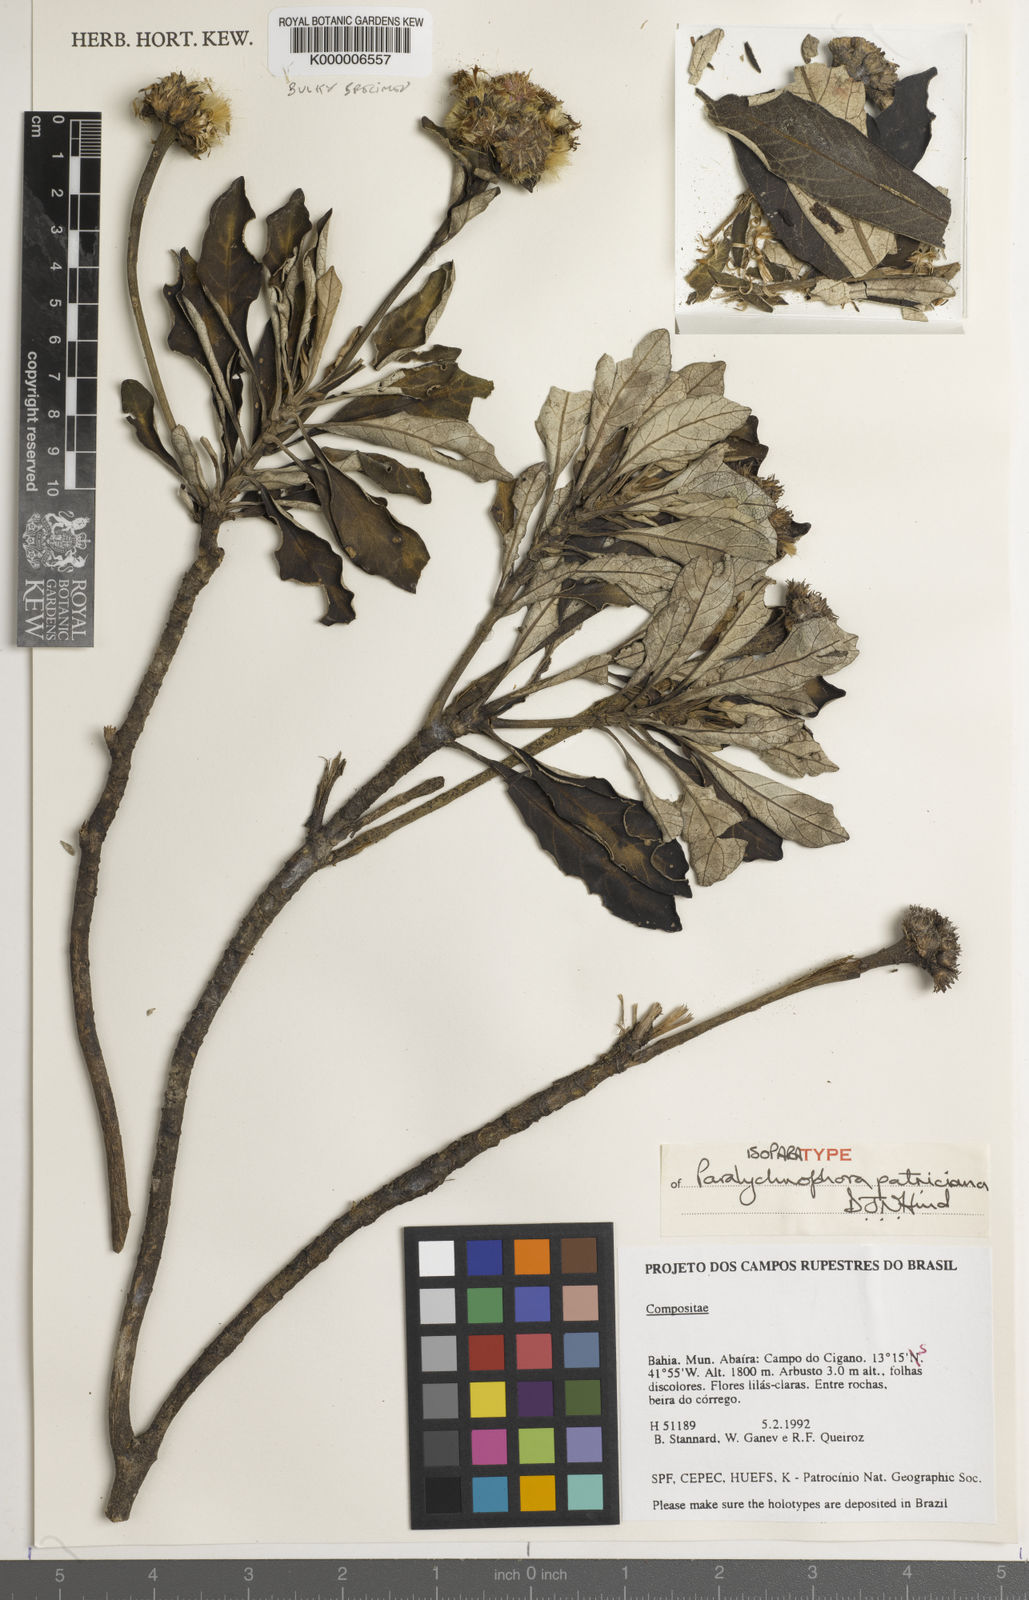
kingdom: Plantae
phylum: Tracheophyta
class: Magnoliopsida
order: Asterales
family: Asteraceae
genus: Paralychnophora
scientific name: Paralychnophora patriciana
